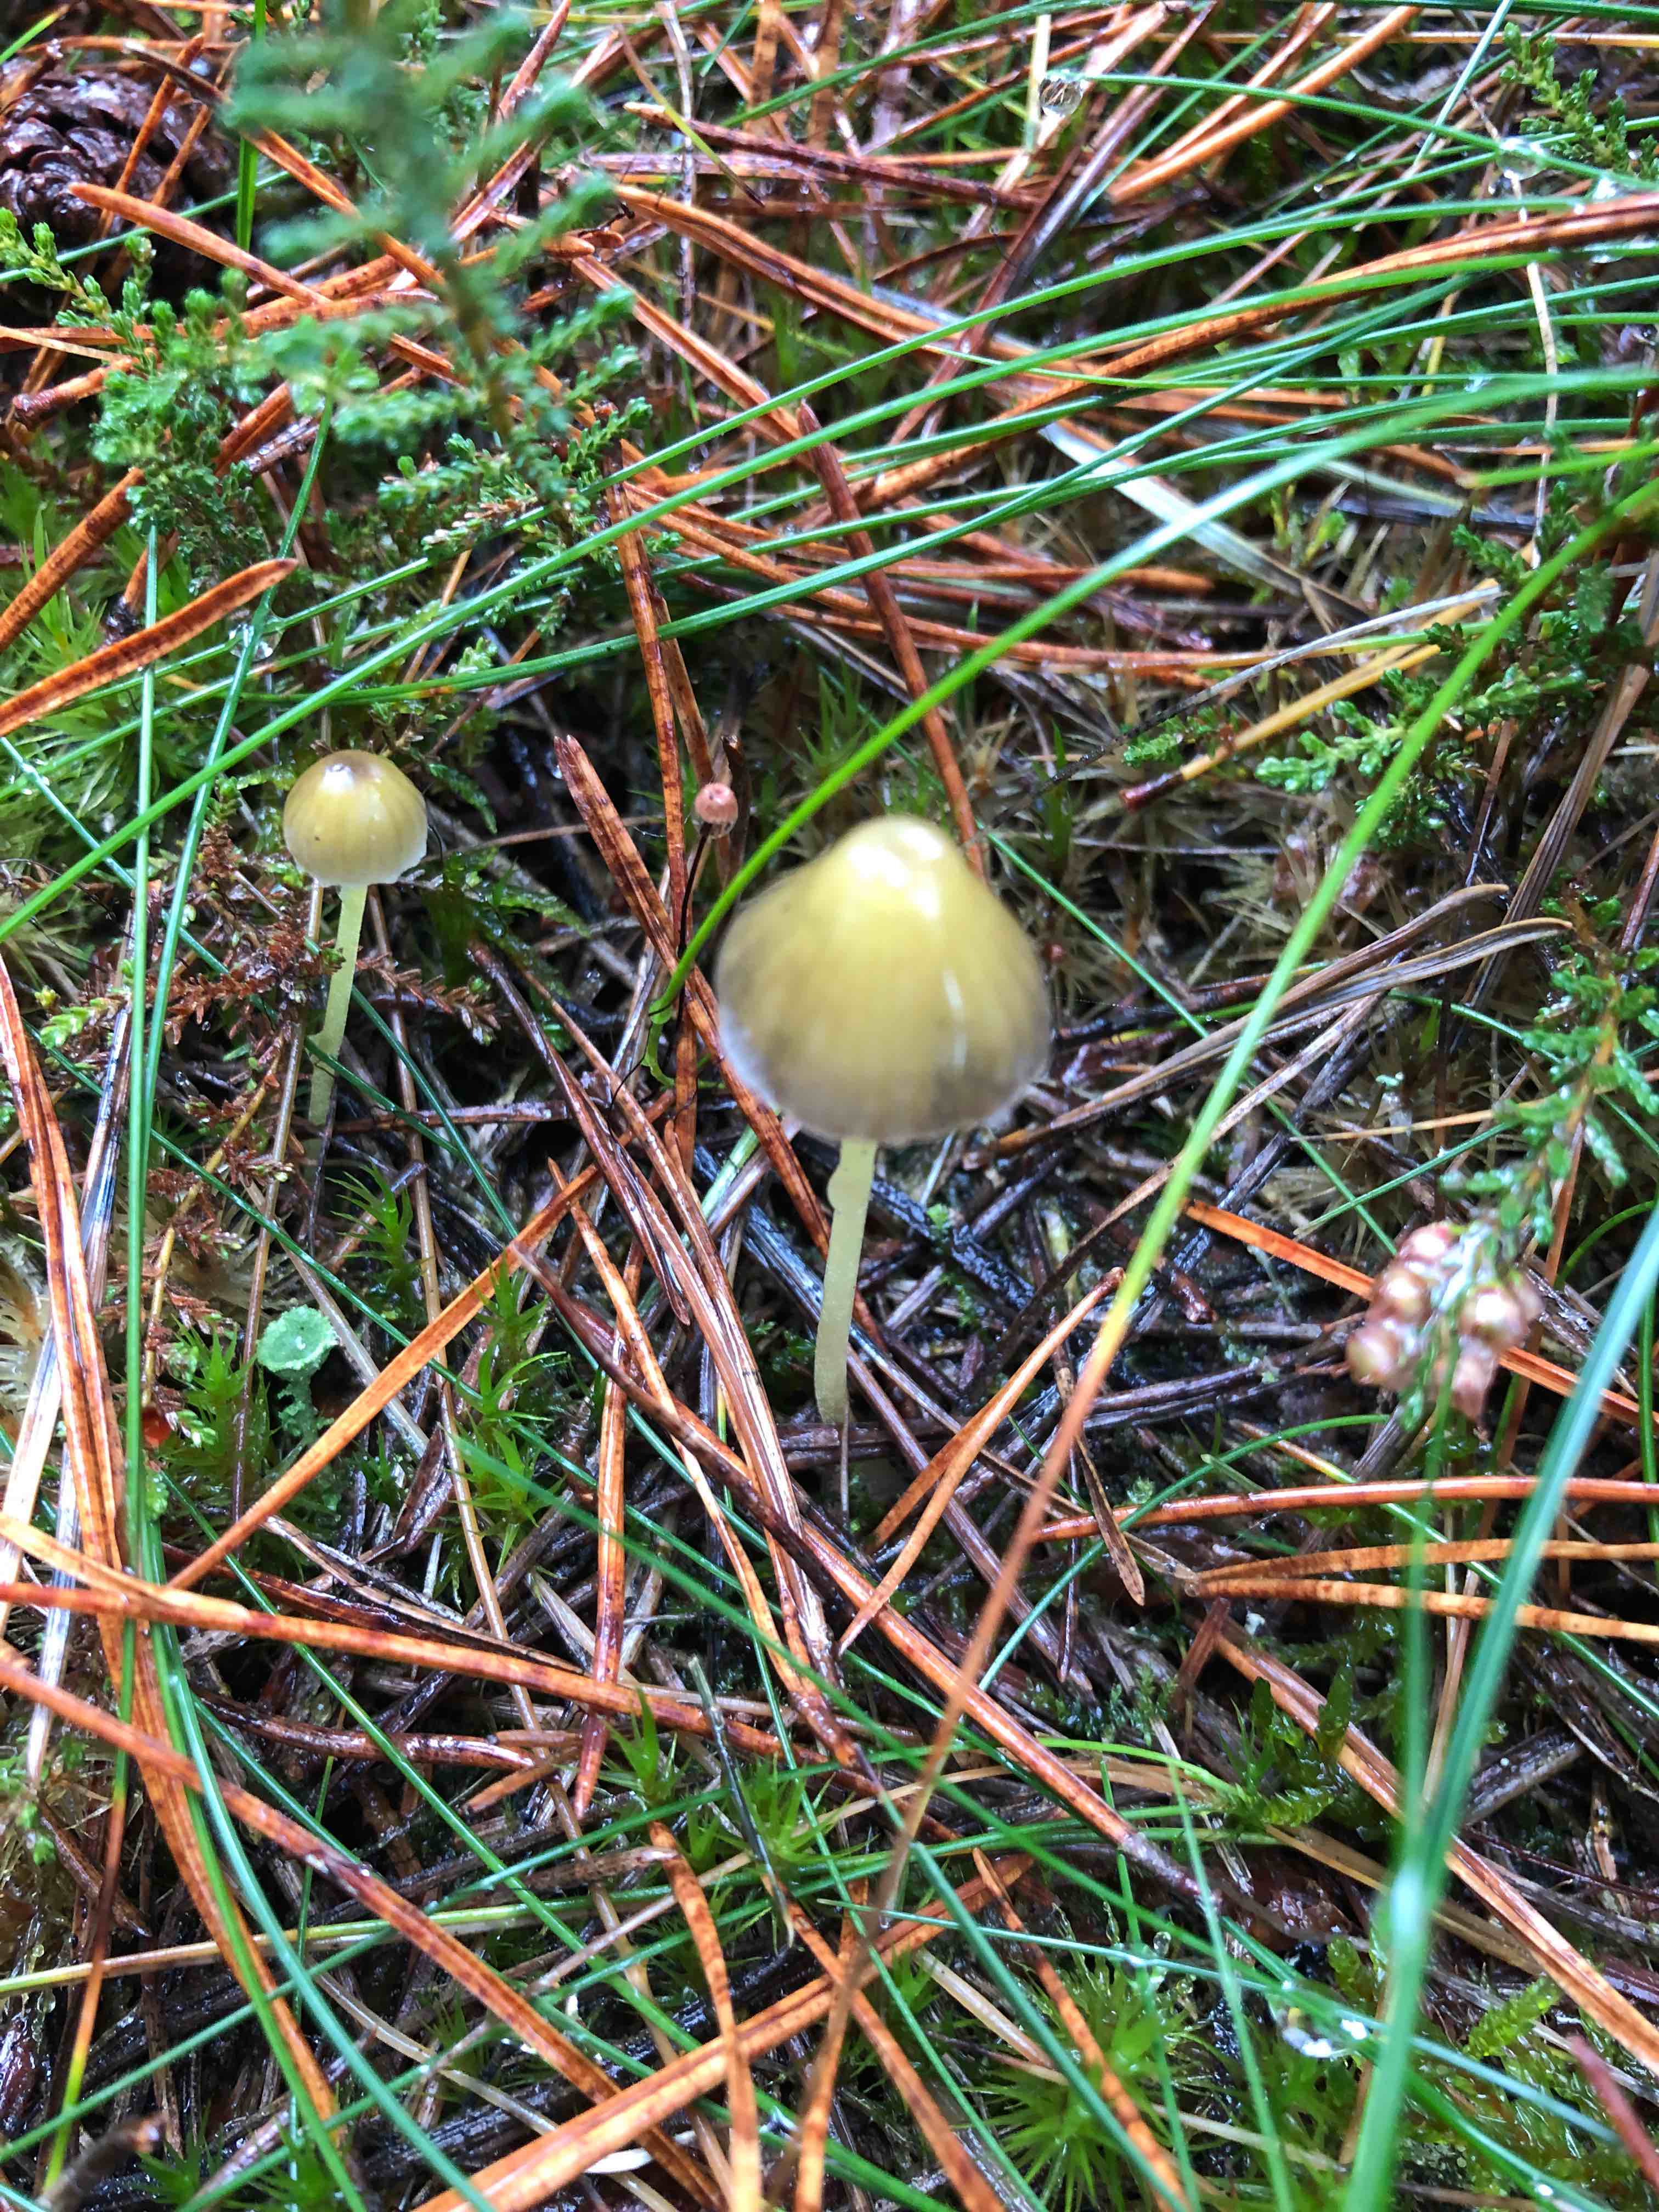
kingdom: Fungi
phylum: Basidiomycota
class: Agaricomycetes
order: Agaricales
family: Mycenaceae
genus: Mycena
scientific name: Mycena
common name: huesvamp
